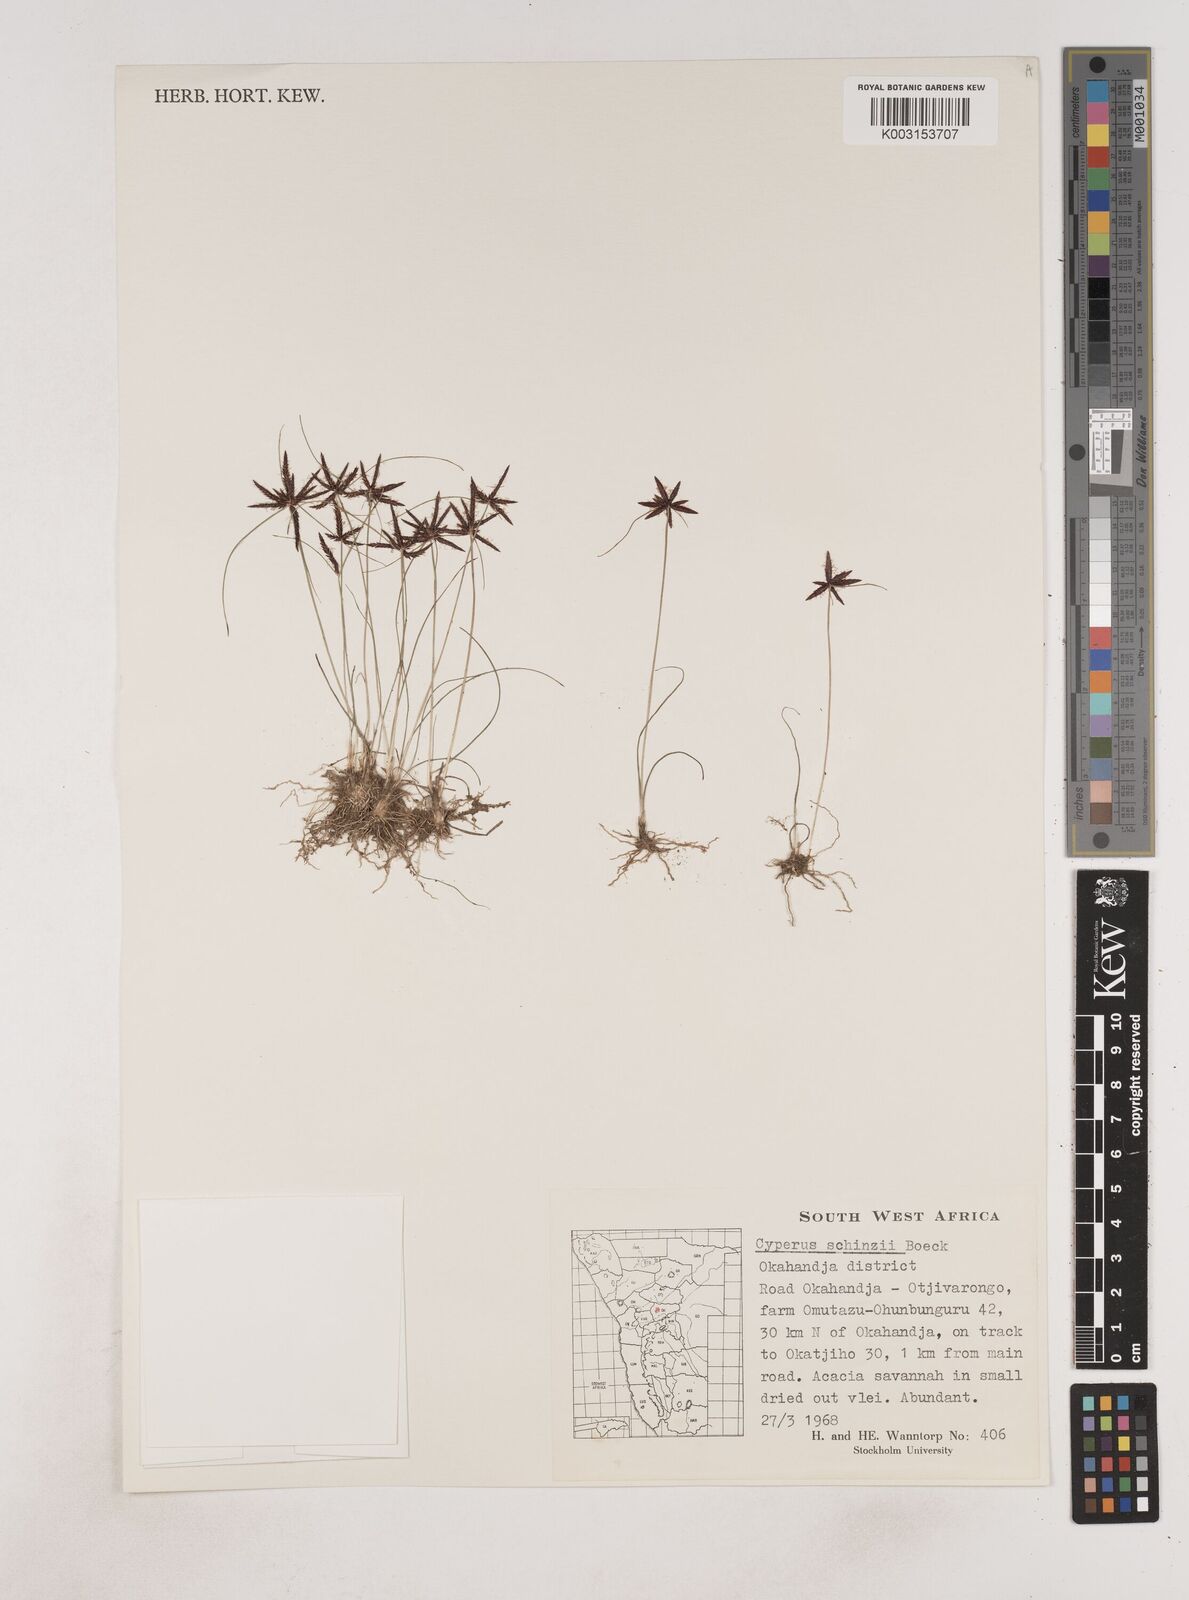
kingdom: Plantae
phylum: Tracheophyta
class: Liliopsida
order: Poales
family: Cyperaceae
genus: Cyperus
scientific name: Cyperus semitrifidus
